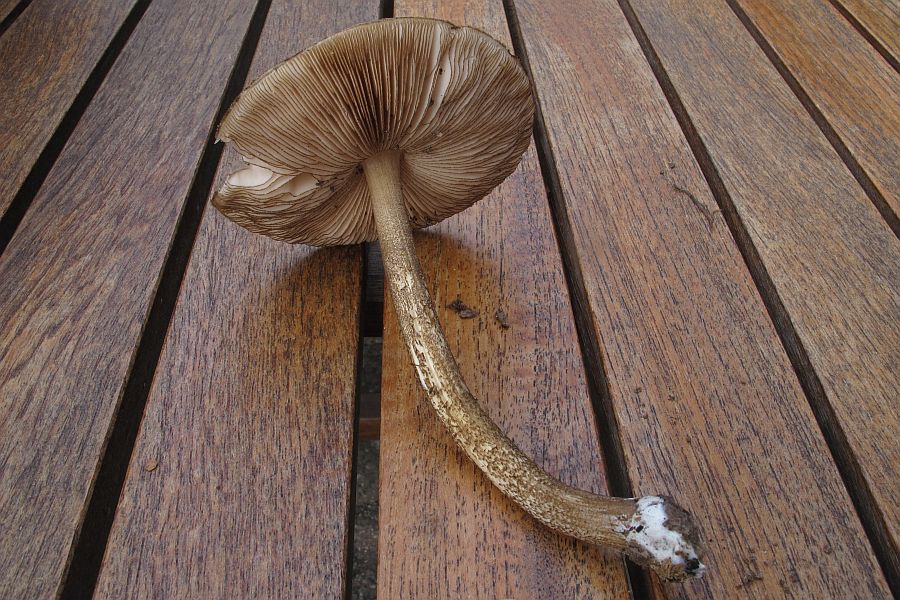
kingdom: Fungi
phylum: Basidiomycota
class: Agaricomycetes
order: Agaricales
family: Pluteaceae
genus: Pluteus
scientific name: Pluteus umbrosus
